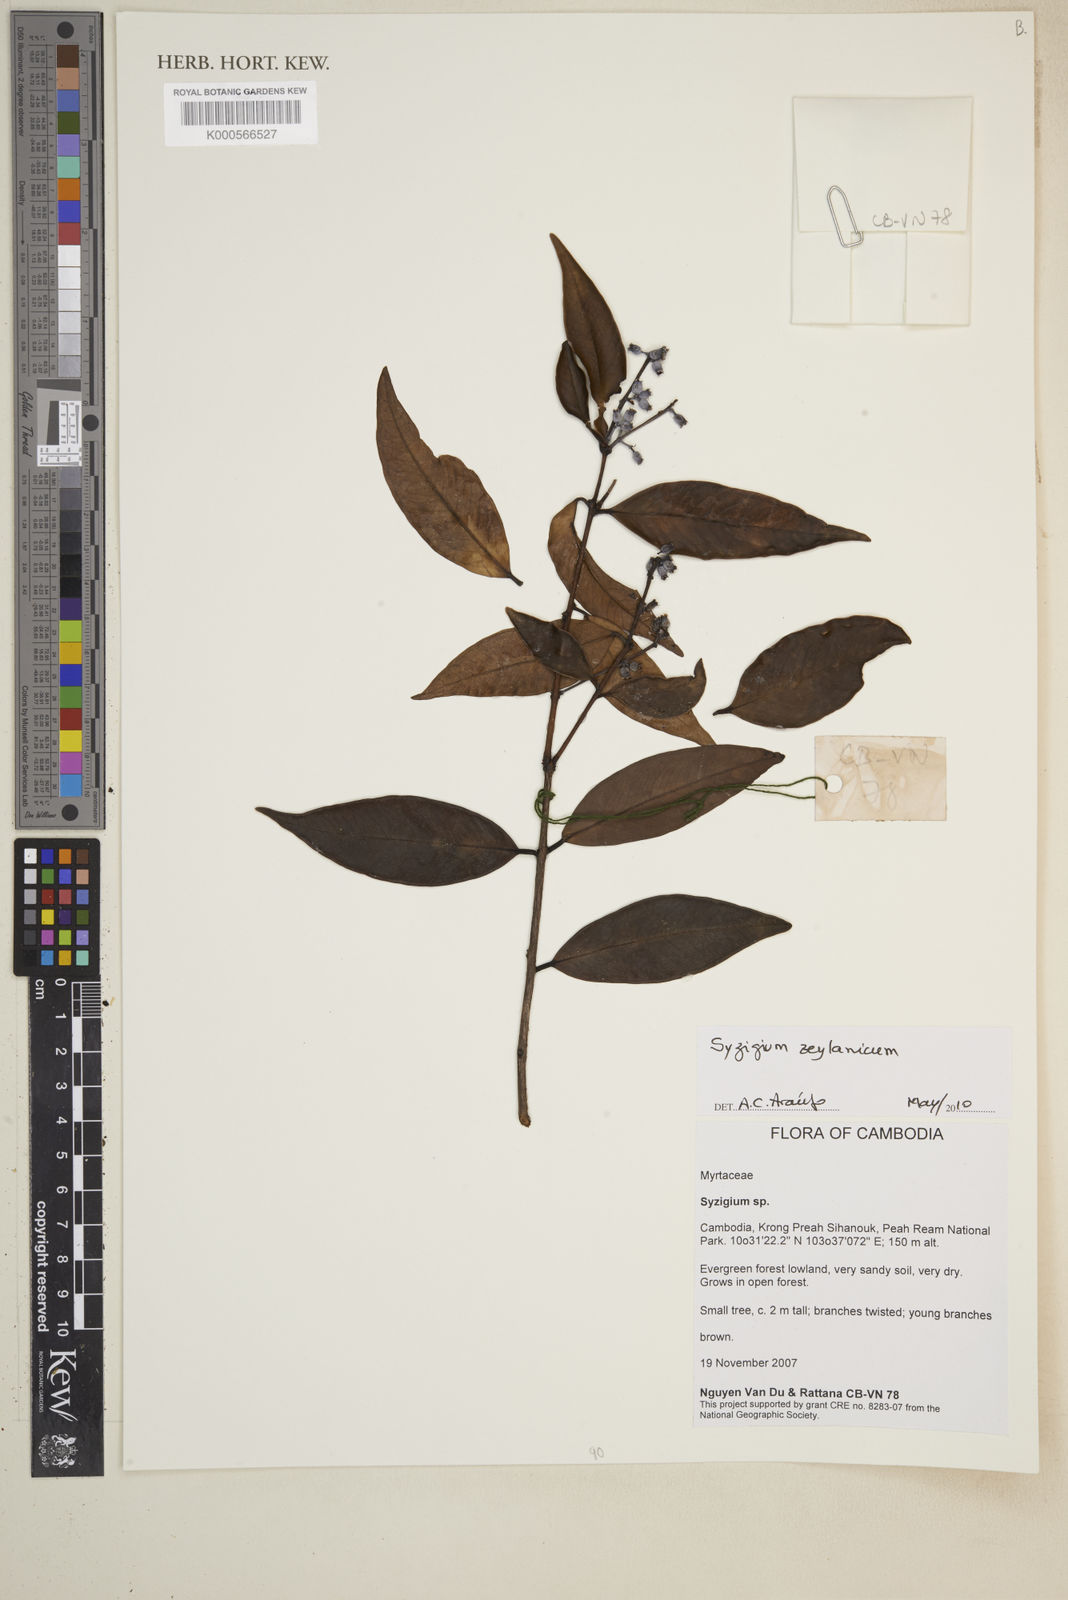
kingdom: Plantae
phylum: Tracheophyta
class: Magnoliopsida
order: Myrtales
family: Myrtaceae
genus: Syzygium
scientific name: Syzygium zeylanicum
